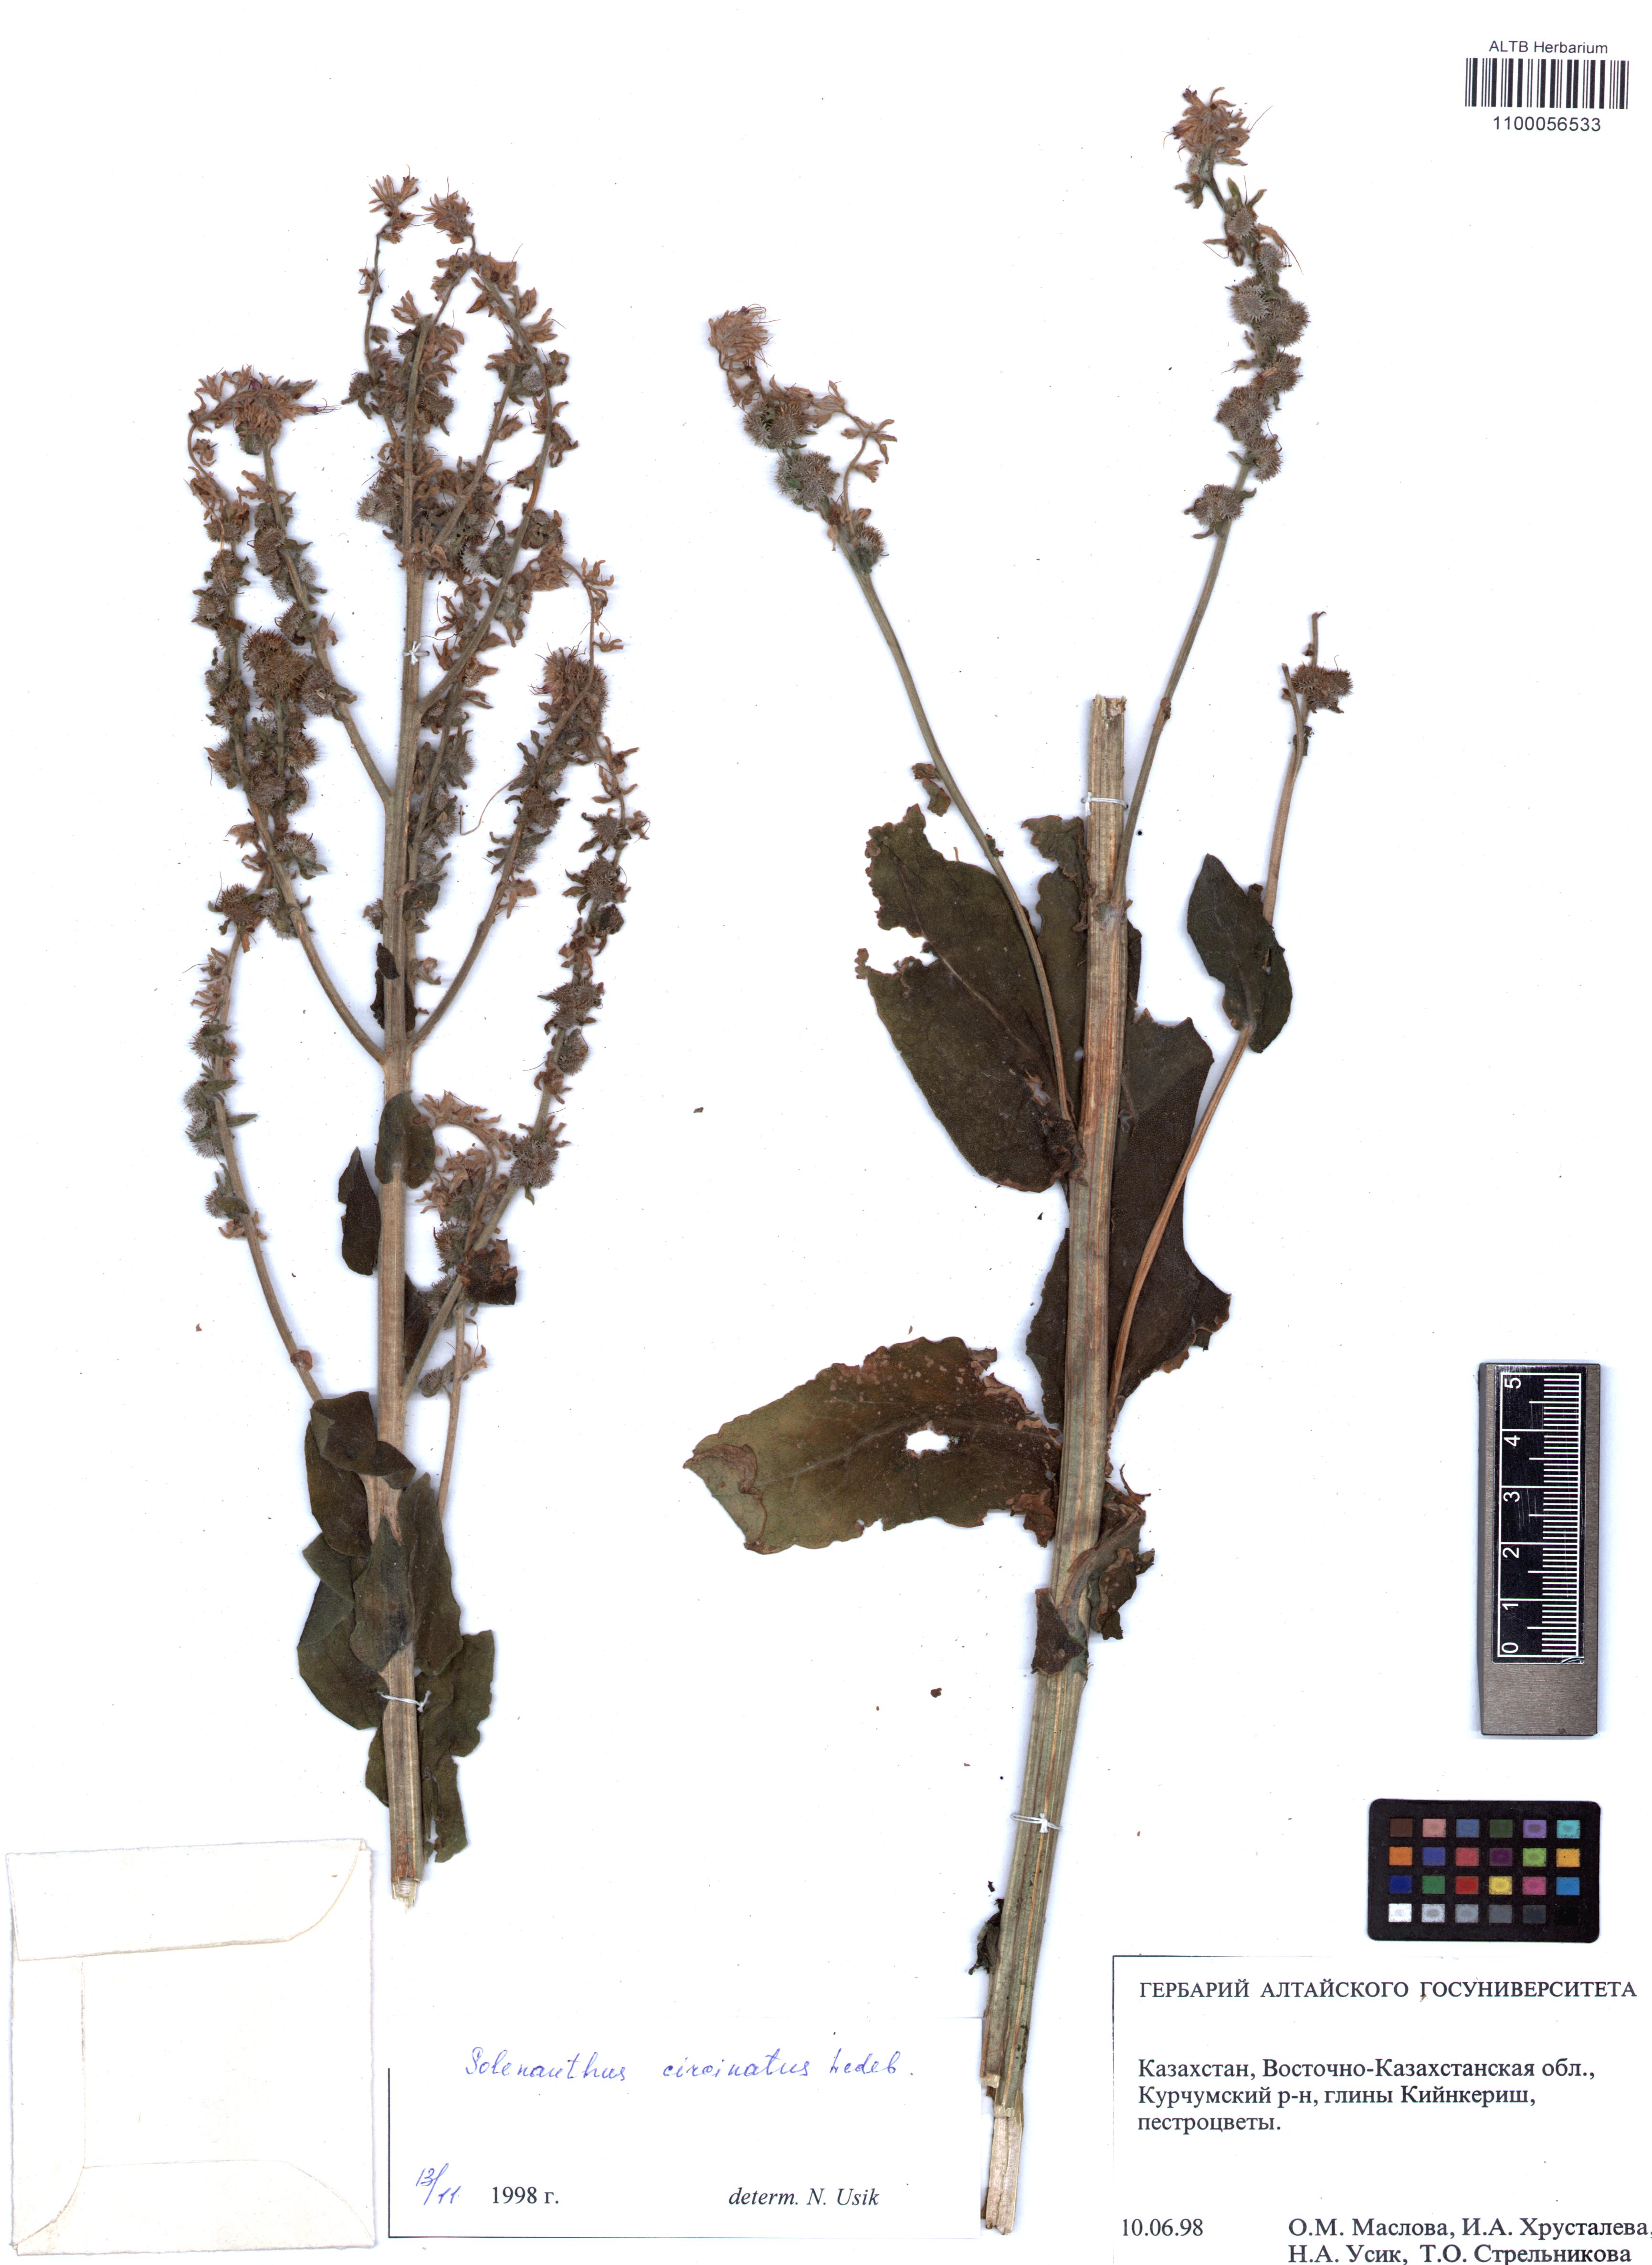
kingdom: Plantae
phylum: Tracheophyta
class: Magnoliopsida
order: Boraginales
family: Boraginaceae
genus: Solenanthus
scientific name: Solenanthus circinnatus
